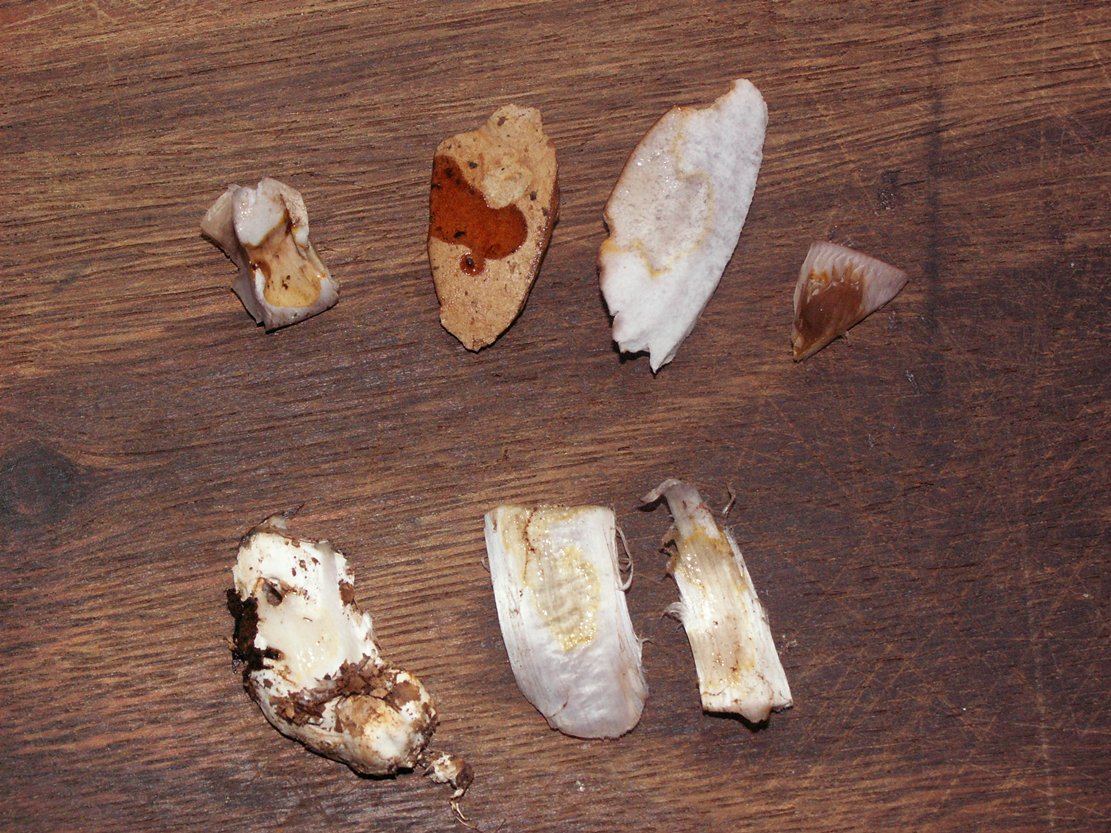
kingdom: Fungi
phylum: Basidiomycota
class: Agaricomycetes
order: Agaricales
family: Cortinariaceae
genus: Cortinarius
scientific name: Cortinarius largus
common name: violetrandet slørhat
